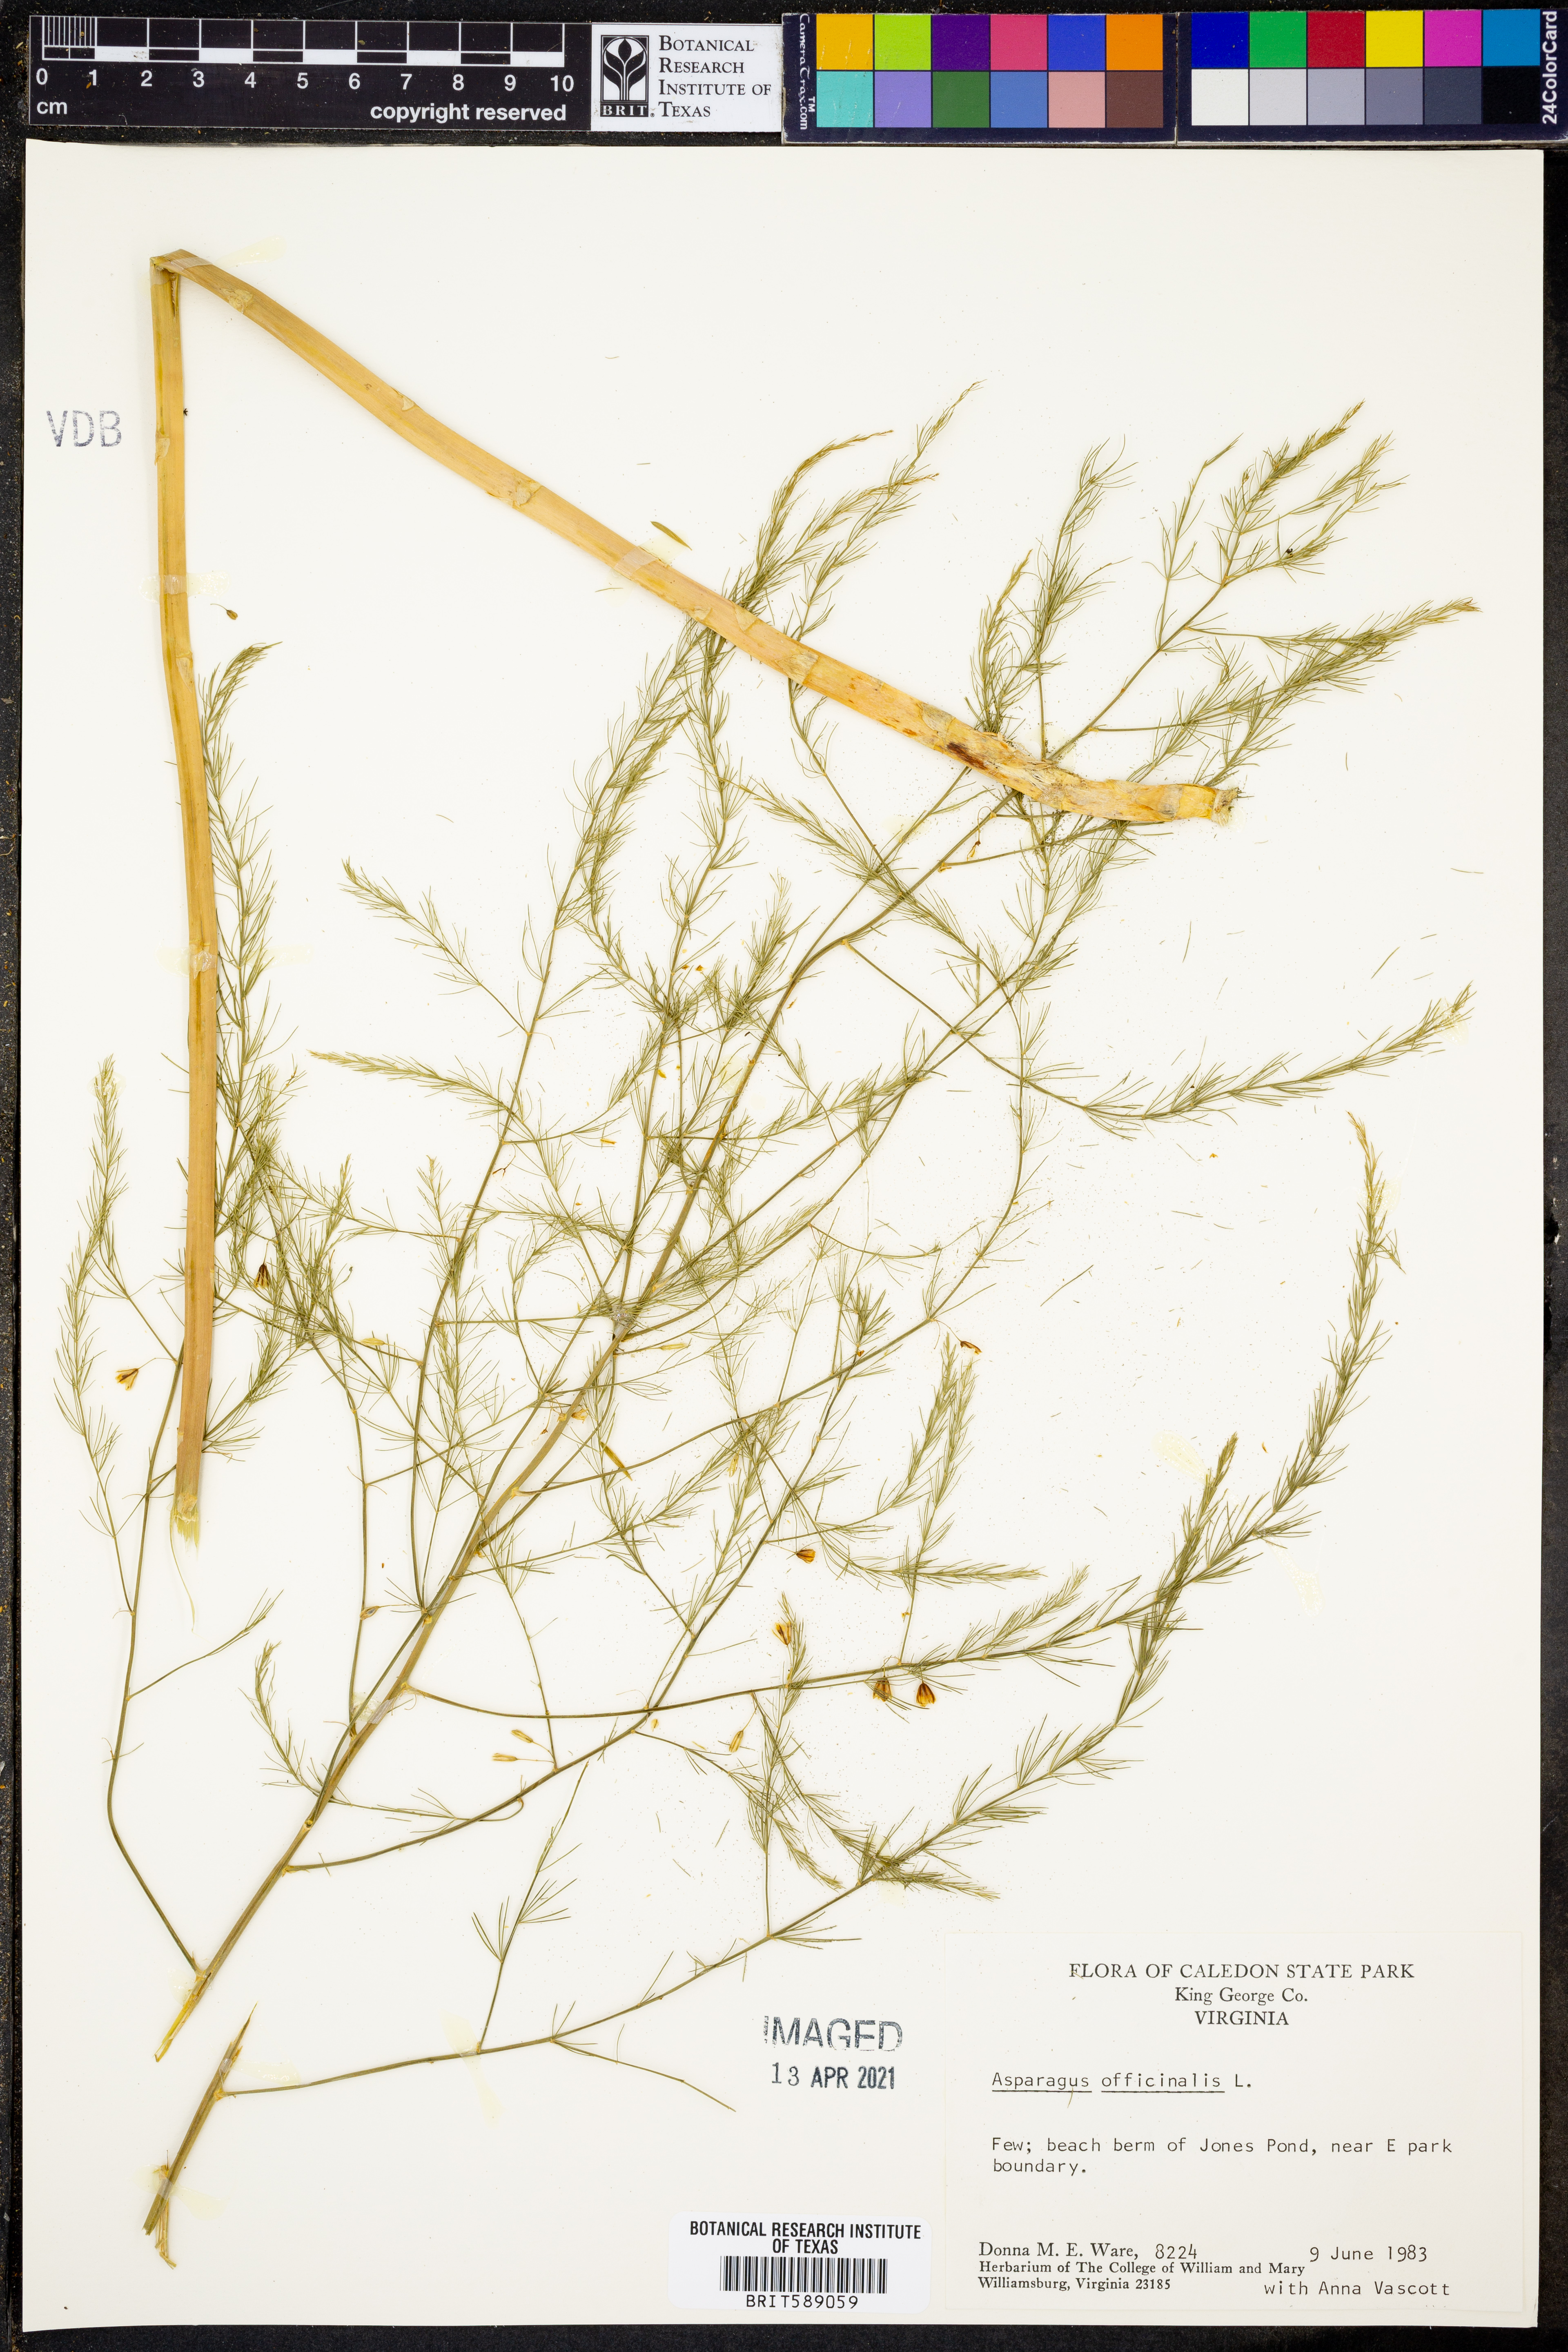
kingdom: Plantae
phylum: Tracheophyta
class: Liliopsida
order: Asparagales
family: Asparagaceae
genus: Asparagus
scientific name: Asparagus officinalis
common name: Garden asparagus
